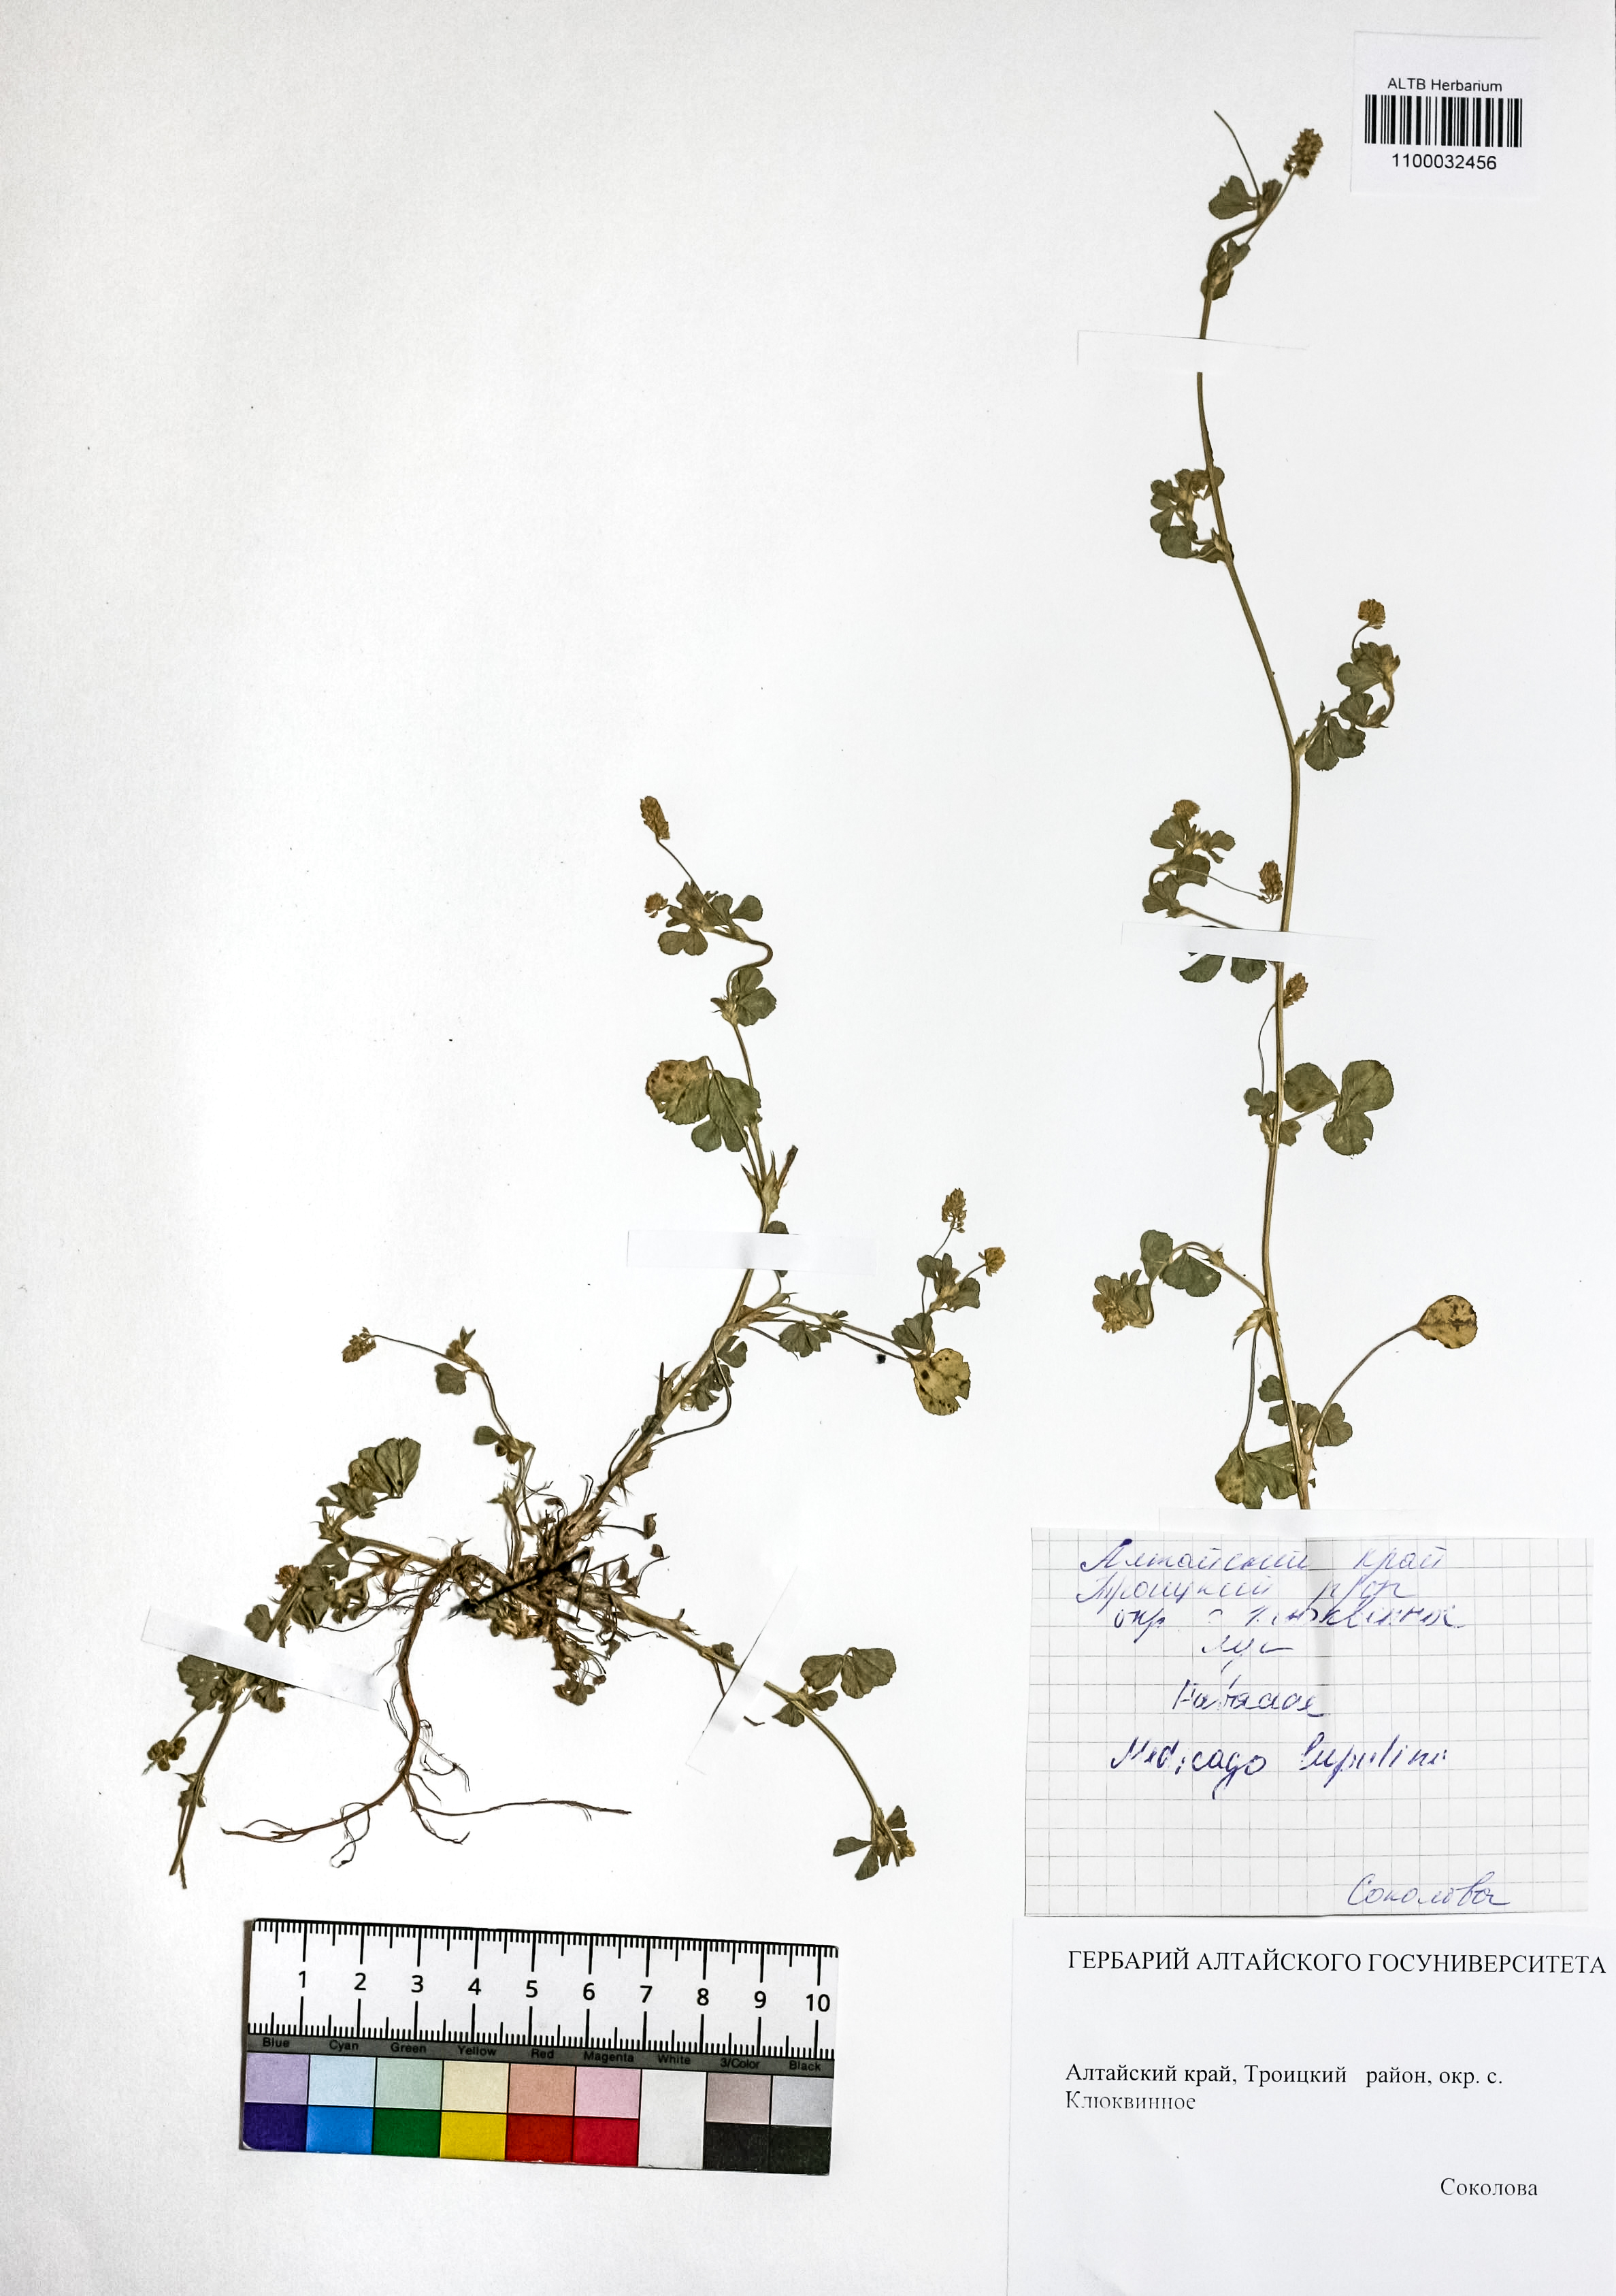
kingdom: Plantae
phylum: Tracheophyta
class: Magnoliopsida
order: Fabales
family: Fabaceae
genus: Medicago
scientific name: Medicago lupulina
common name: Black medick
